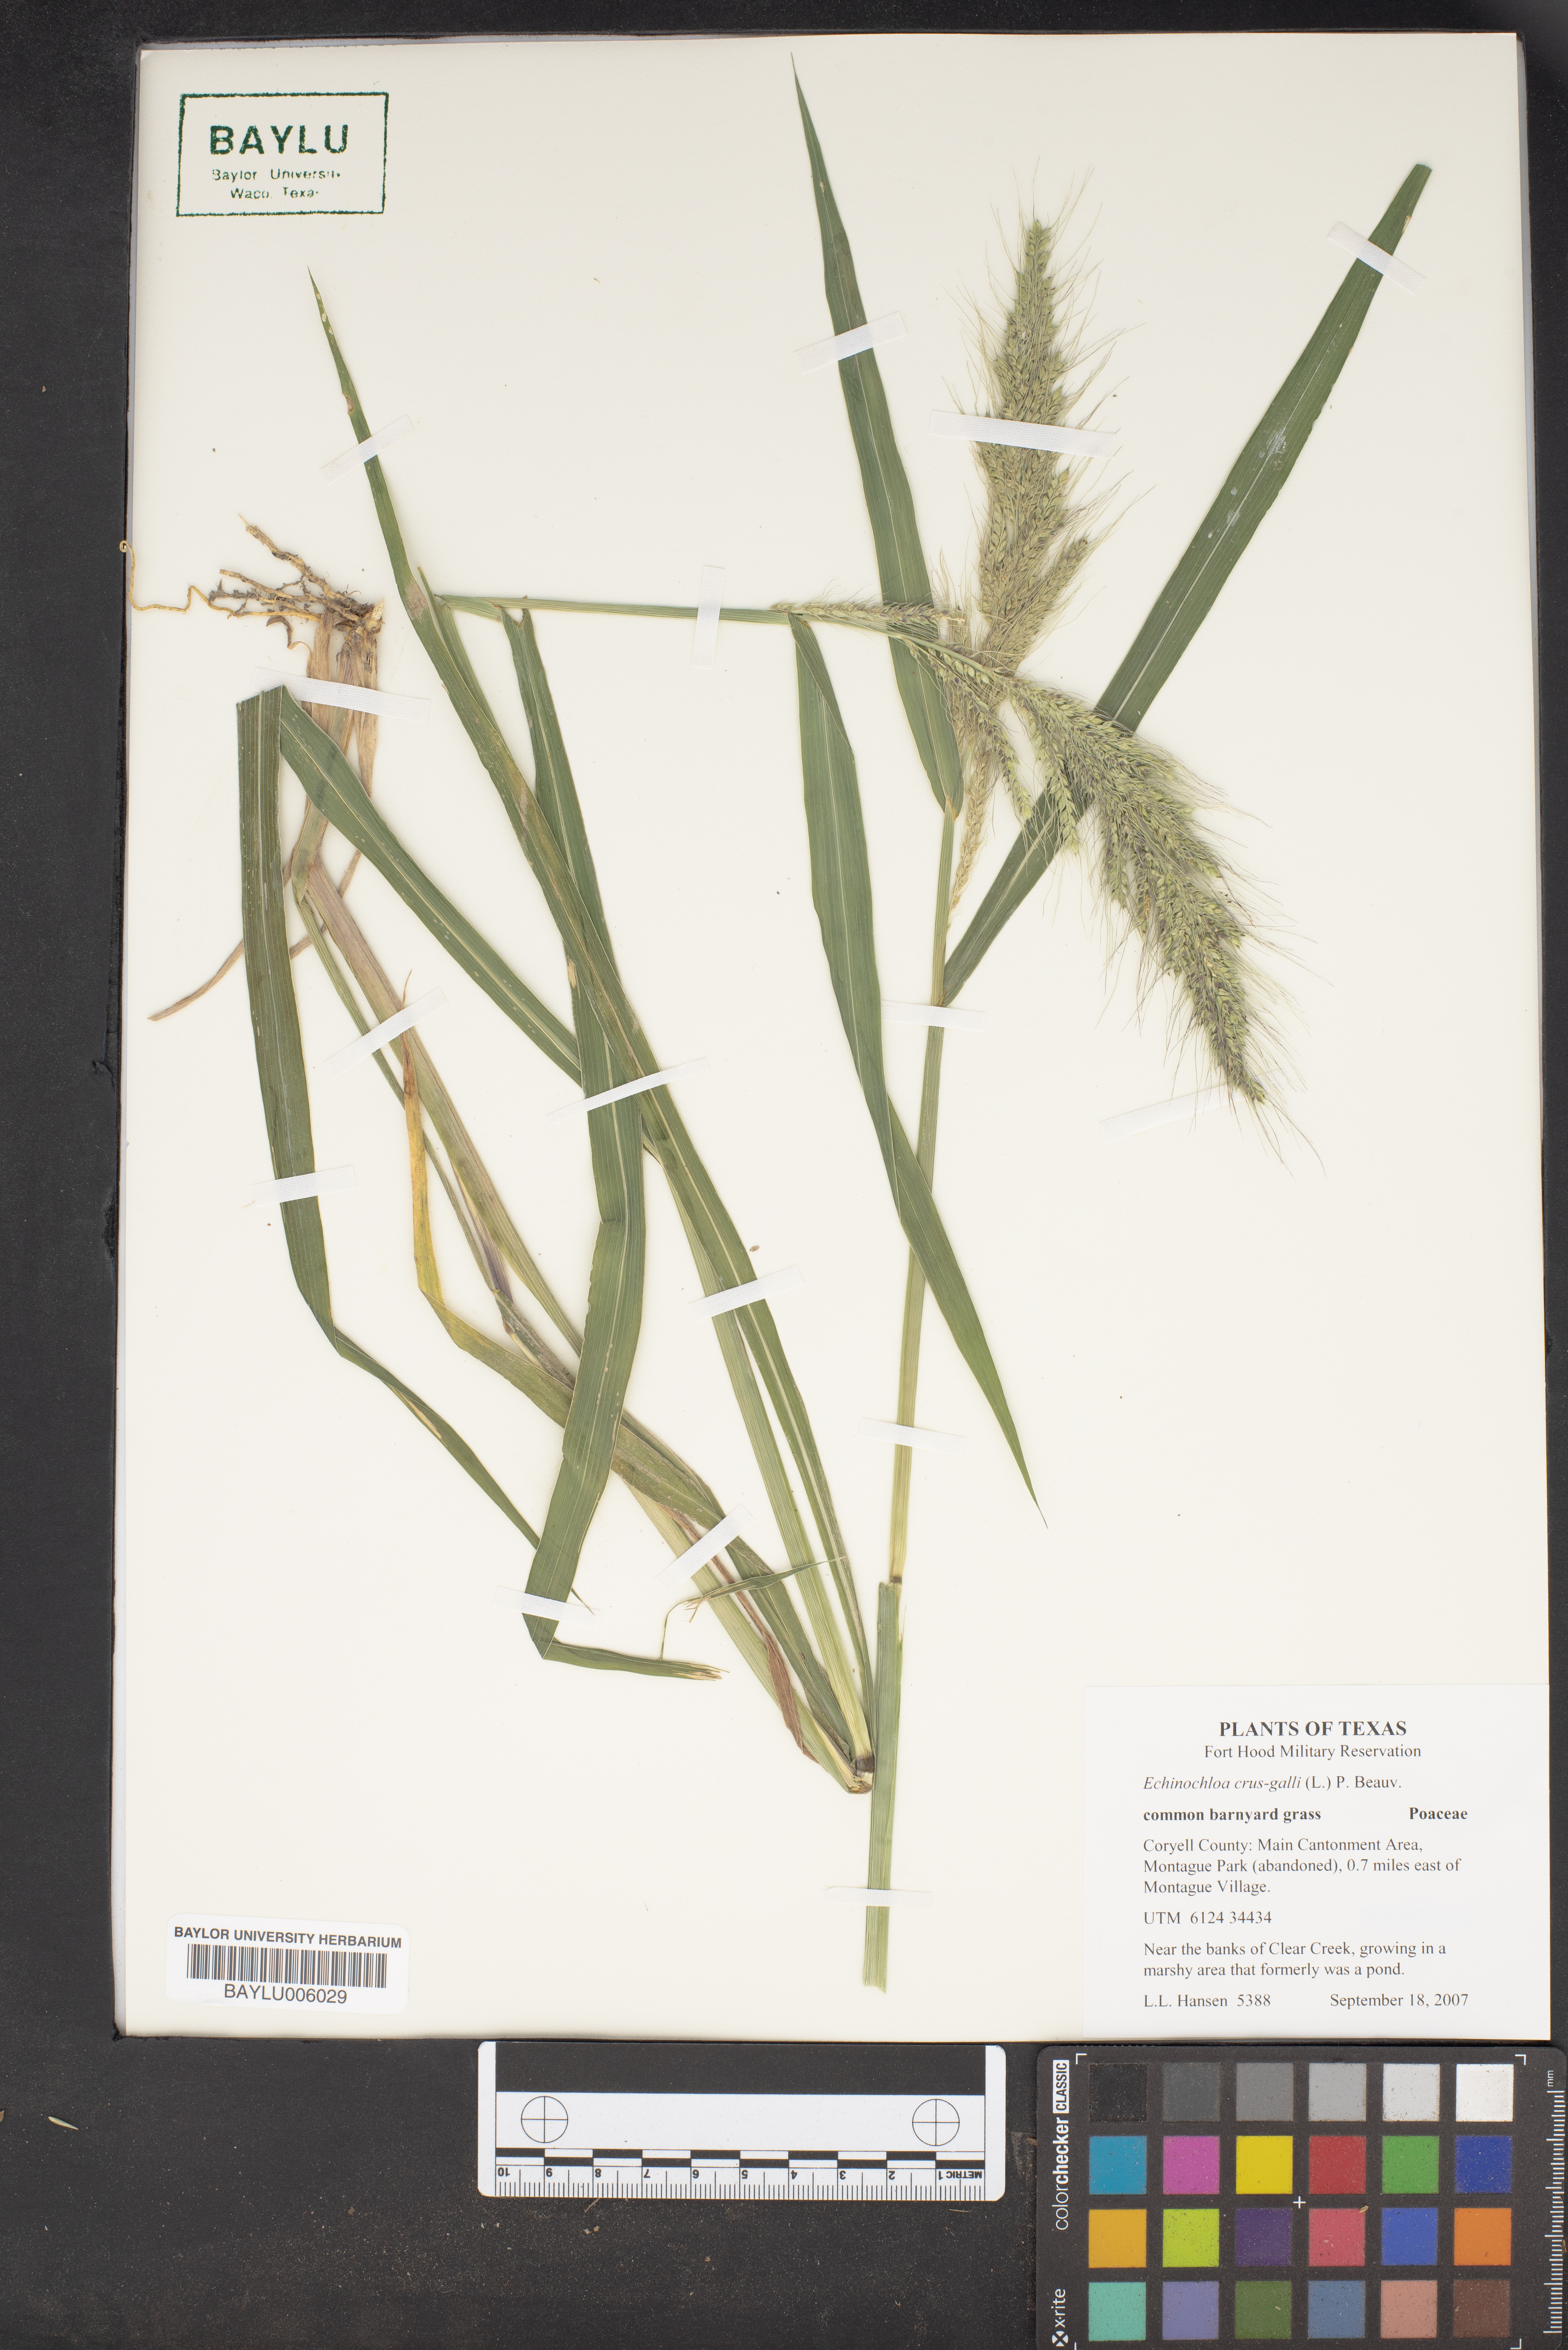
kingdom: Plantae
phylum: Tracheophyta
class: Liliopsida
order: Poales
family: Poaceae
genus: Echinochloa
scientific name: Echinochloa crus-galli
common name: Cockspur
